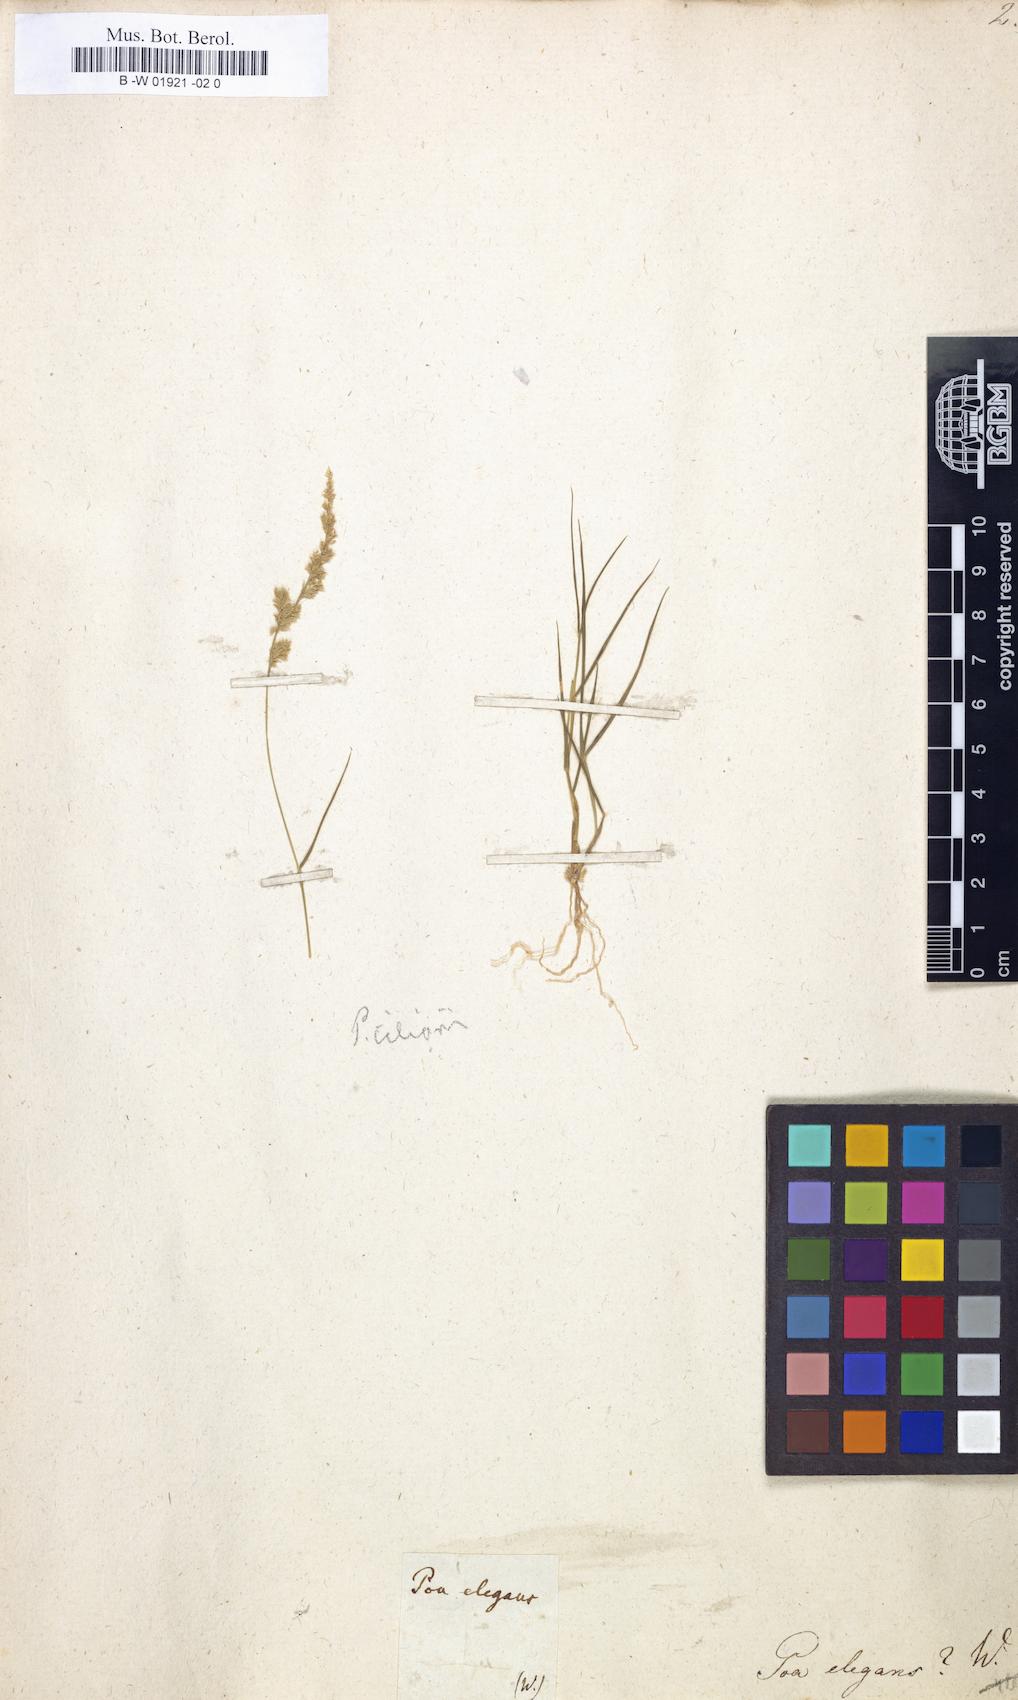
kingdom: Plantae
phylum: Tracheophyta
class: Liliopsida
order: Poales
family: Poaceae
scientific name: Poaceae
